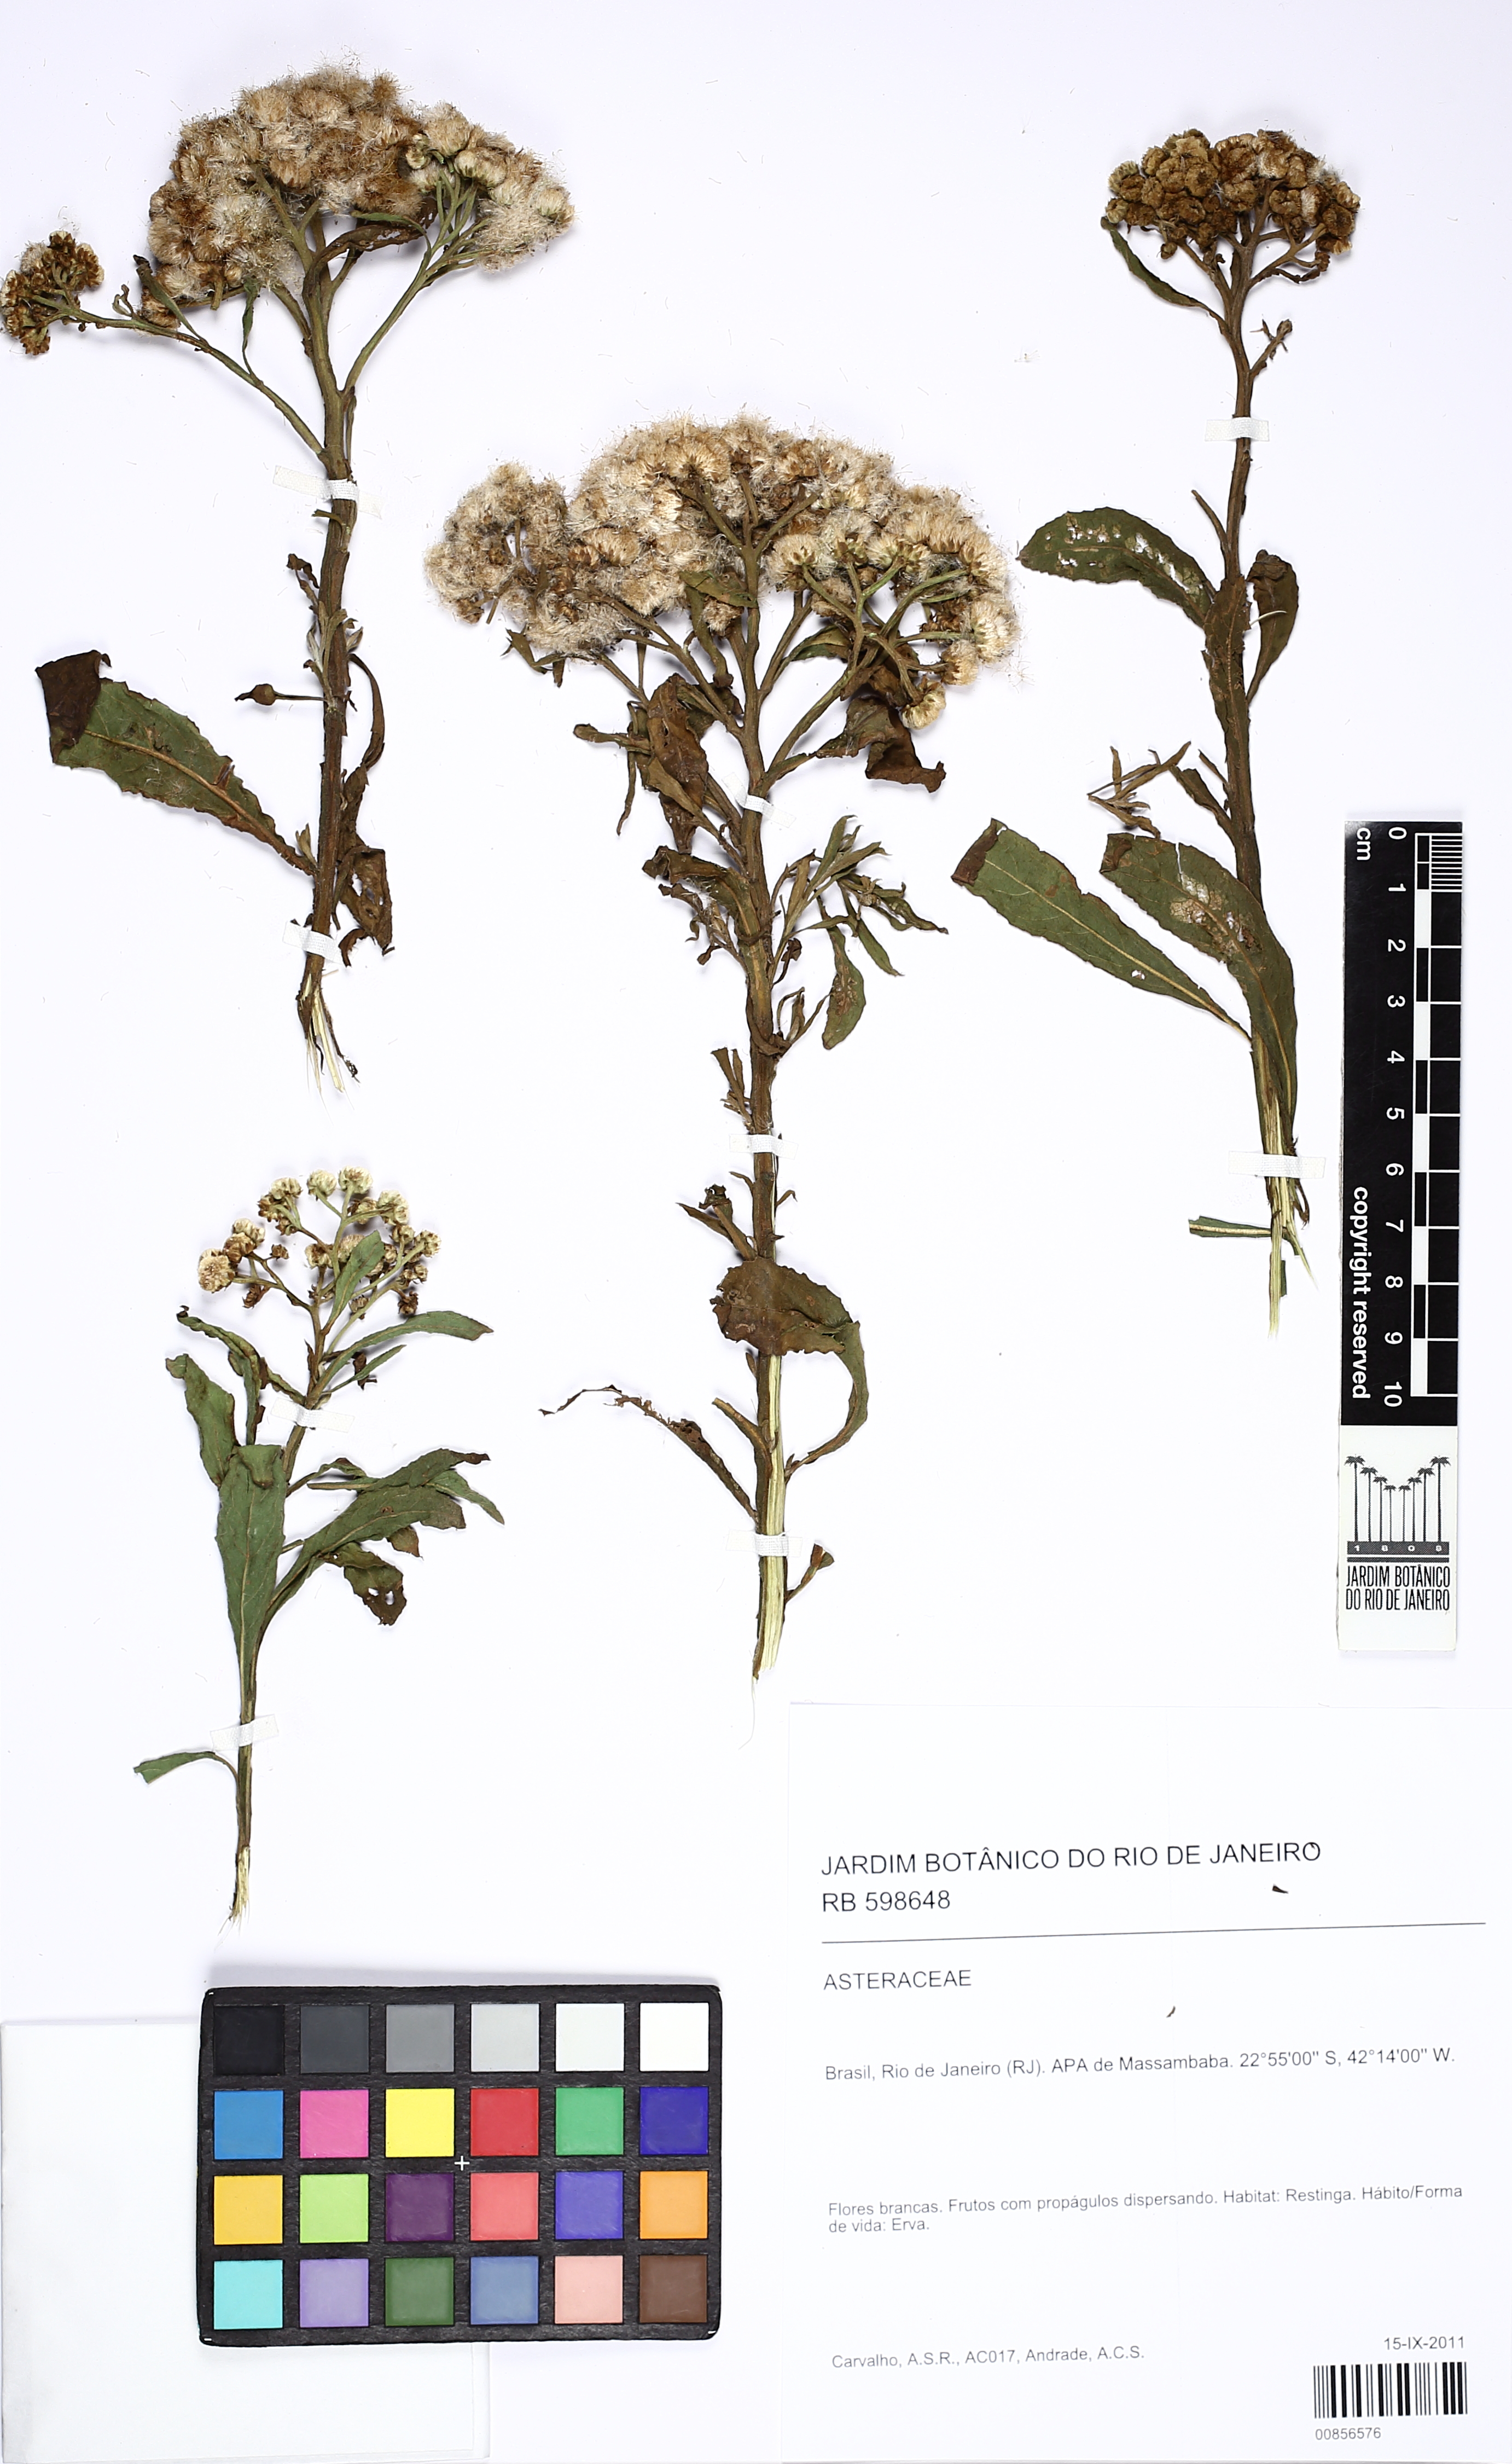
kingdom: Plantae
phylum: Tracheophyta
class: Magnoliopsida
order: Asterales
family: Asteraceae
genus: Pluchea
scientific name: Pluchea
